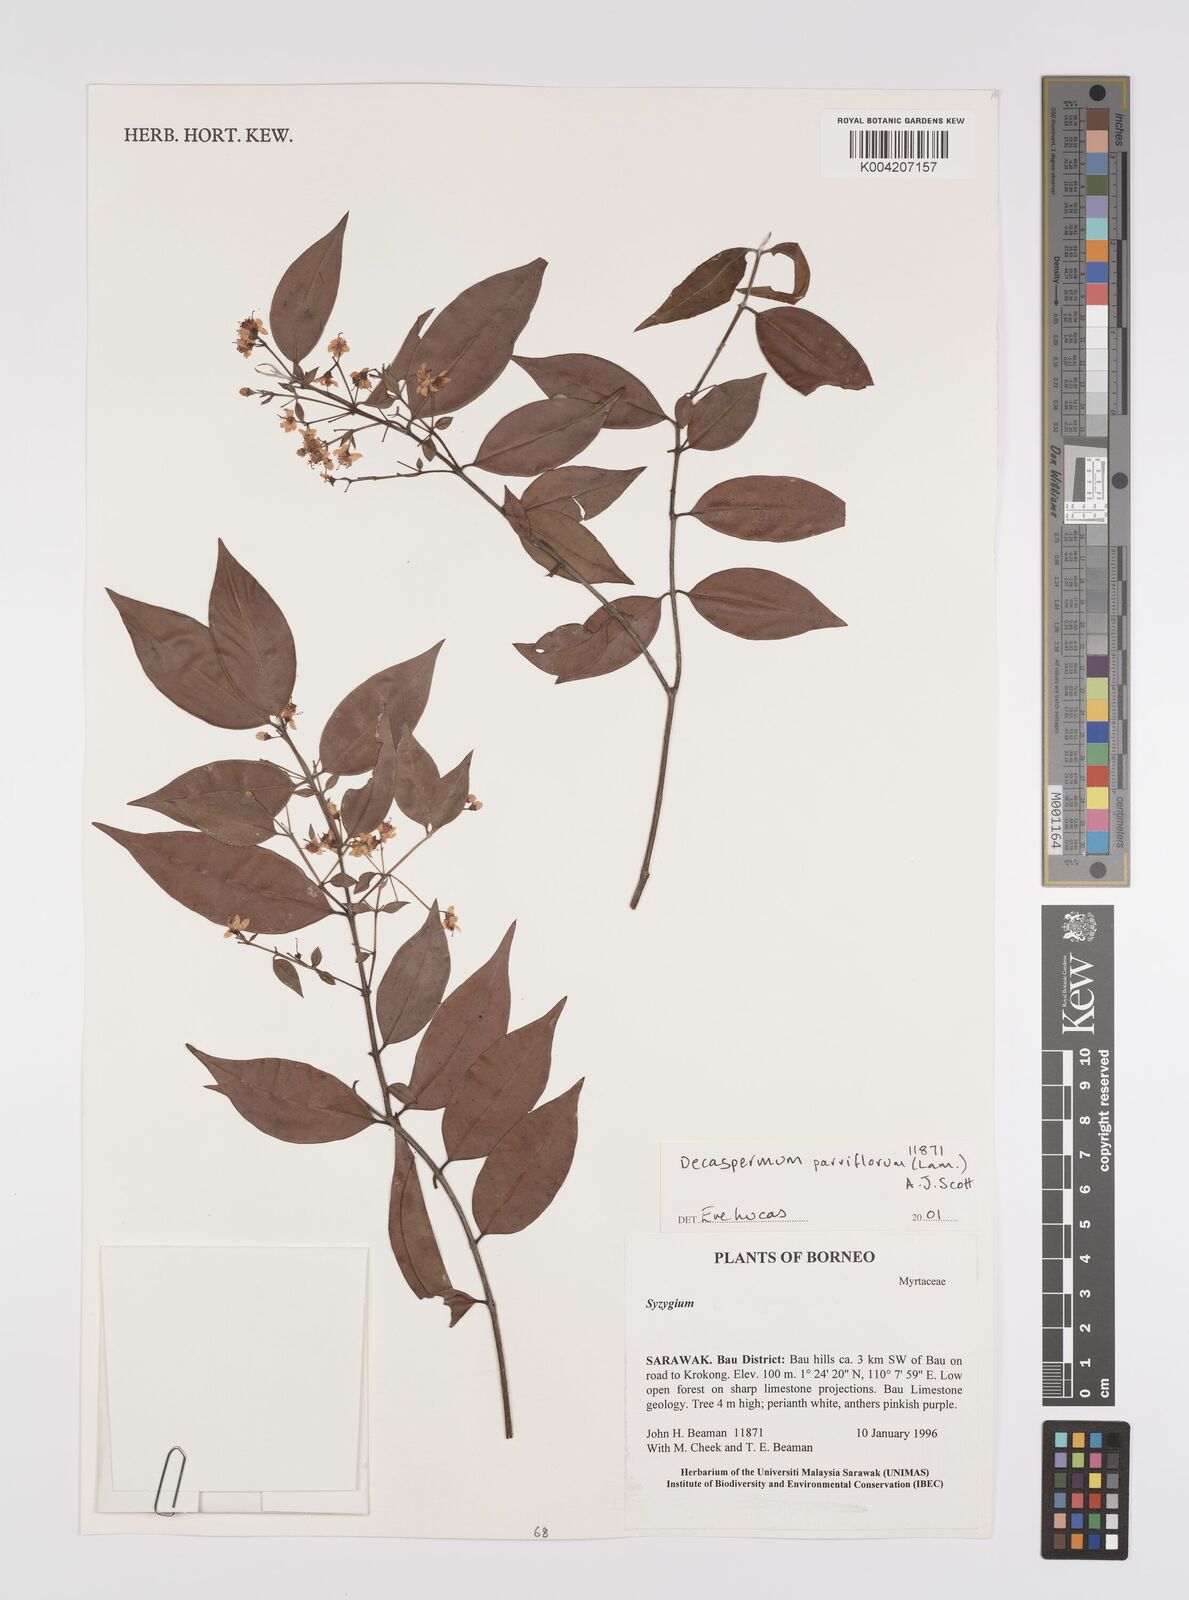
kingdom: Plantae
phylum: Tracheophyta
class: Magnoliopsida
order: Myrtales
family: Myrtaceae
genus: Decaspermum
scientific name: Decaspermum parviflorum
